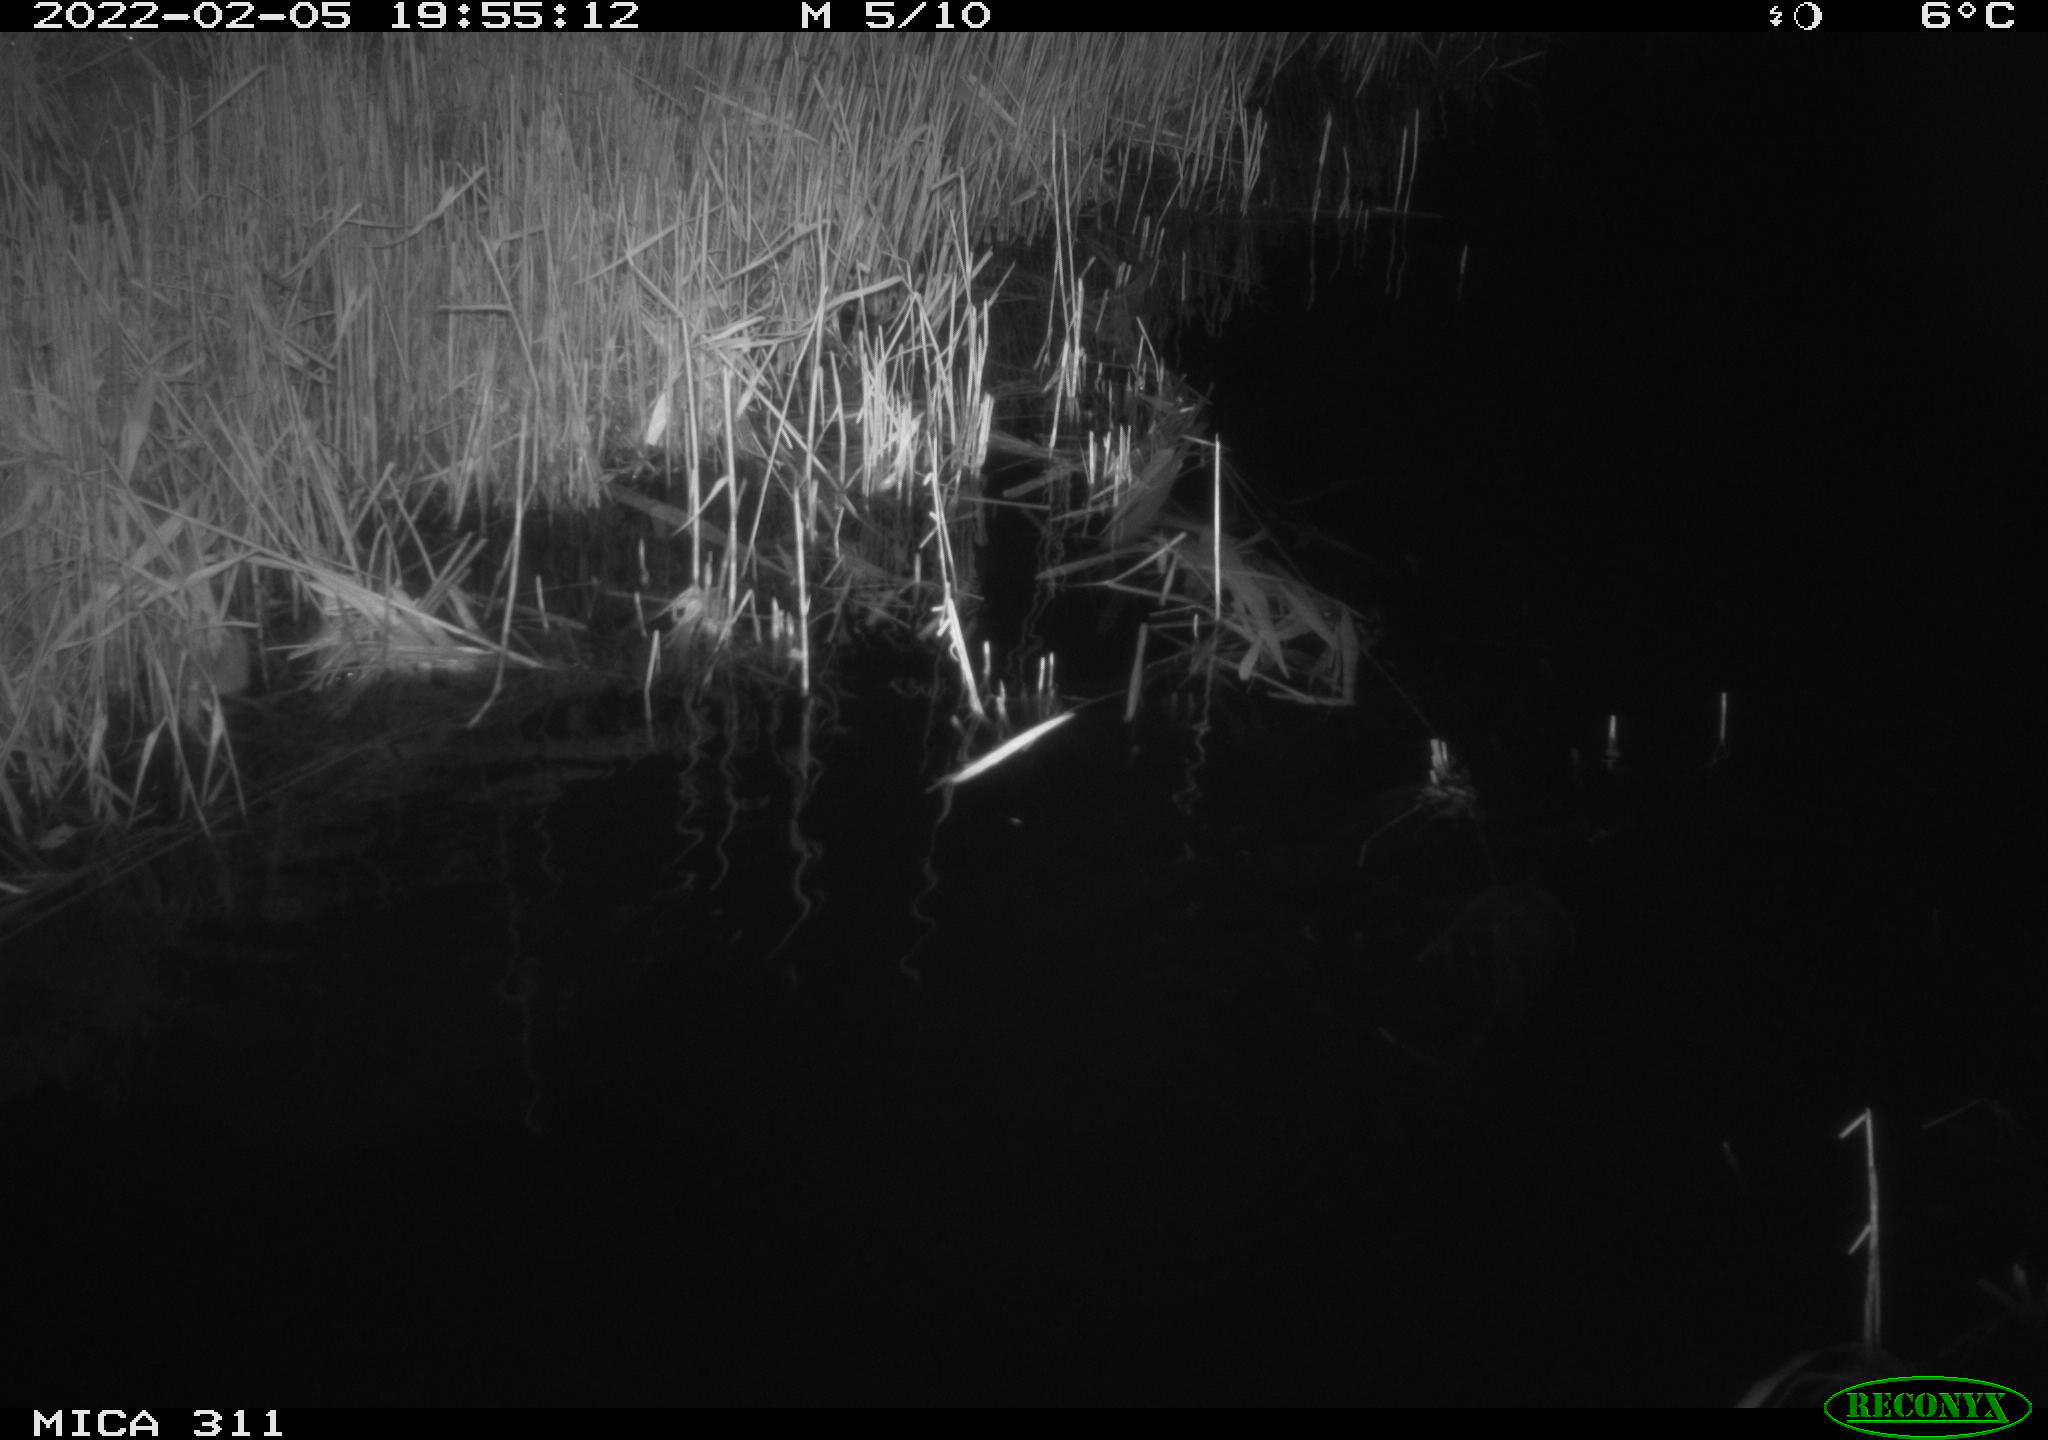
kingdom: Animalia
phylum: Chordata
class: Mammalia
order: Rodentia
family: Muridae
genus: Rattus
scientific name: Rattus norvegicus
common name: Brown rat
